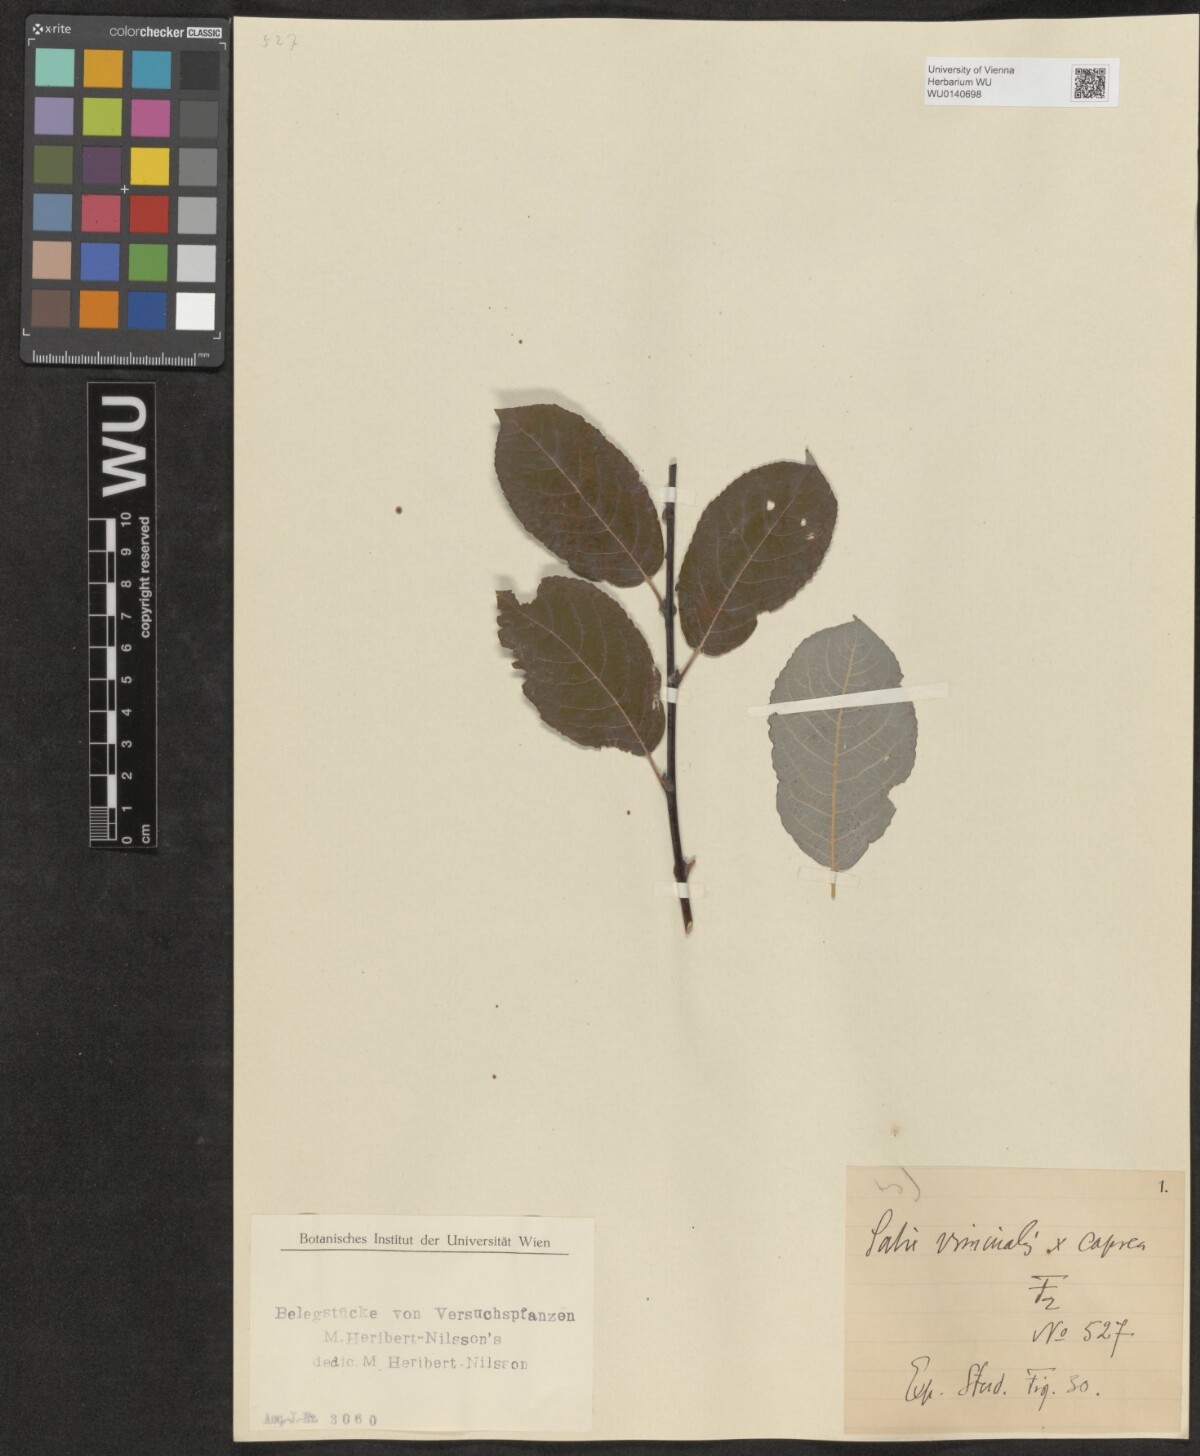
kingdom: Plantae
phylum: Tracheophyta
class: Magnoliopsida
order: Malpighiales
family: Salicaceae
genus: Salix
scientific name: Salix
